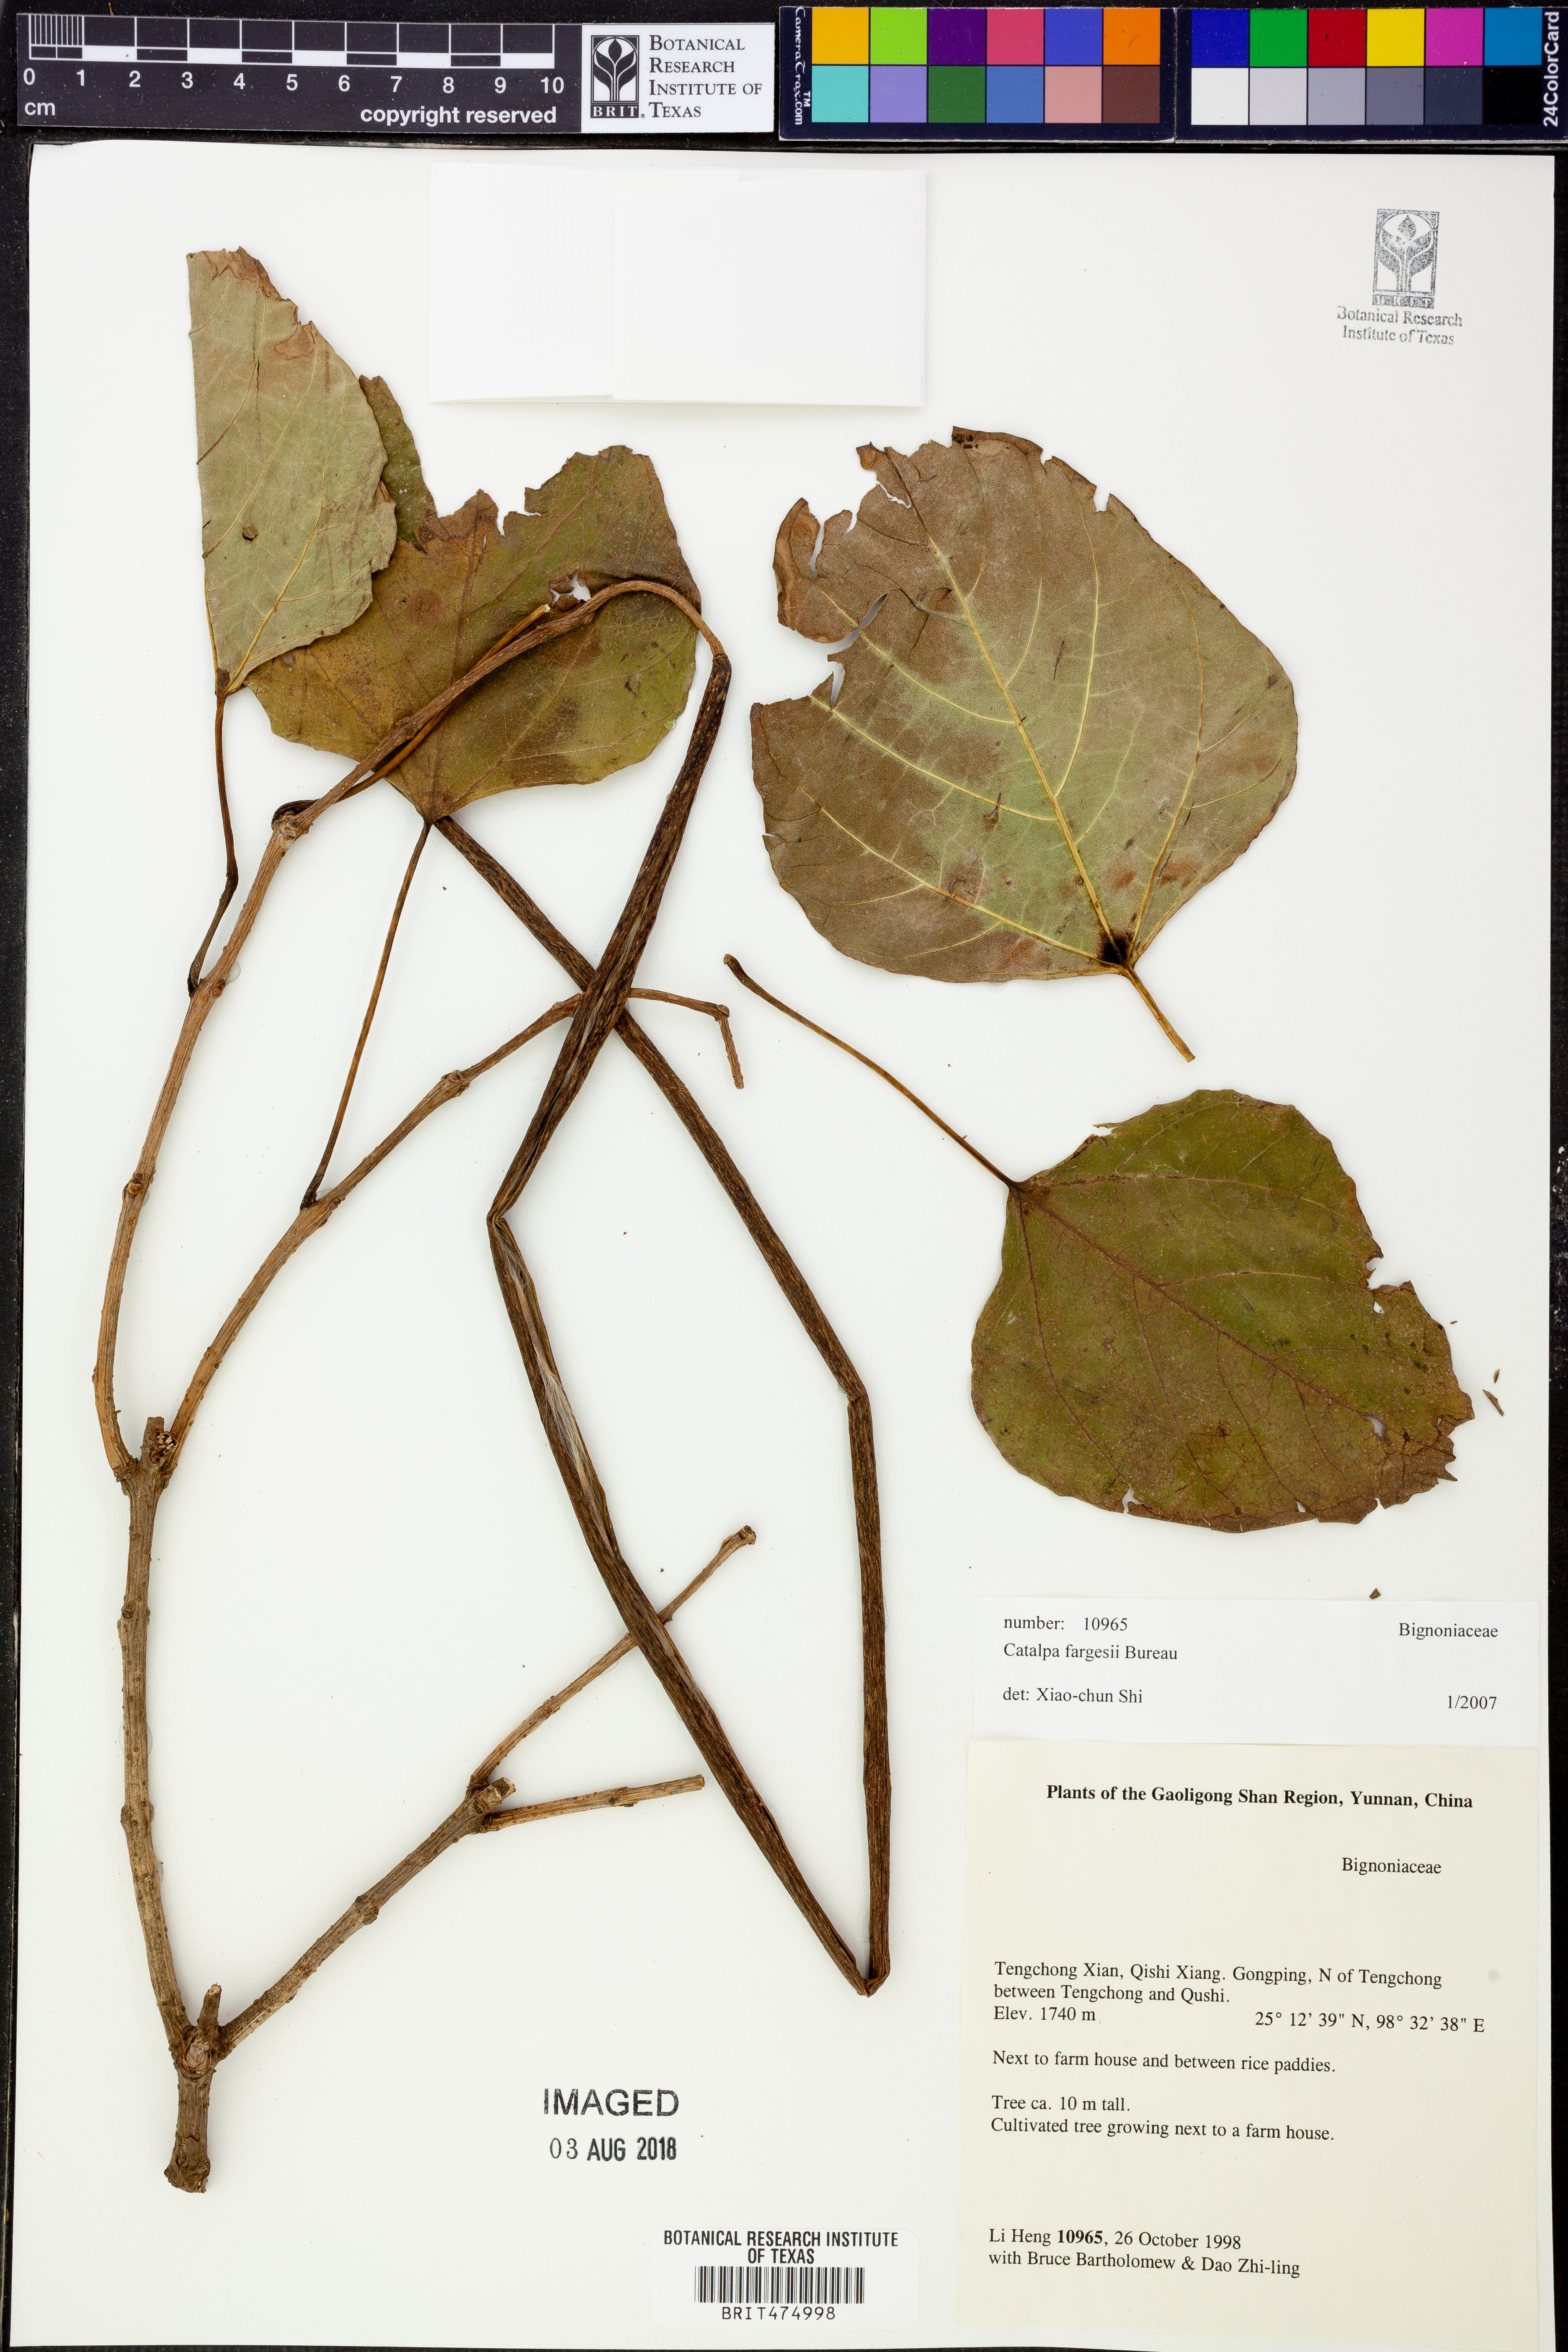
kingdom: Plantae
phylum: Tracheophyta
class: Magnoliopsida
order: Lamiales
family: Bignoniaceae
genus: Catalpa
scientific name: Catalpa fargesii
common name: Farges's catalpa
